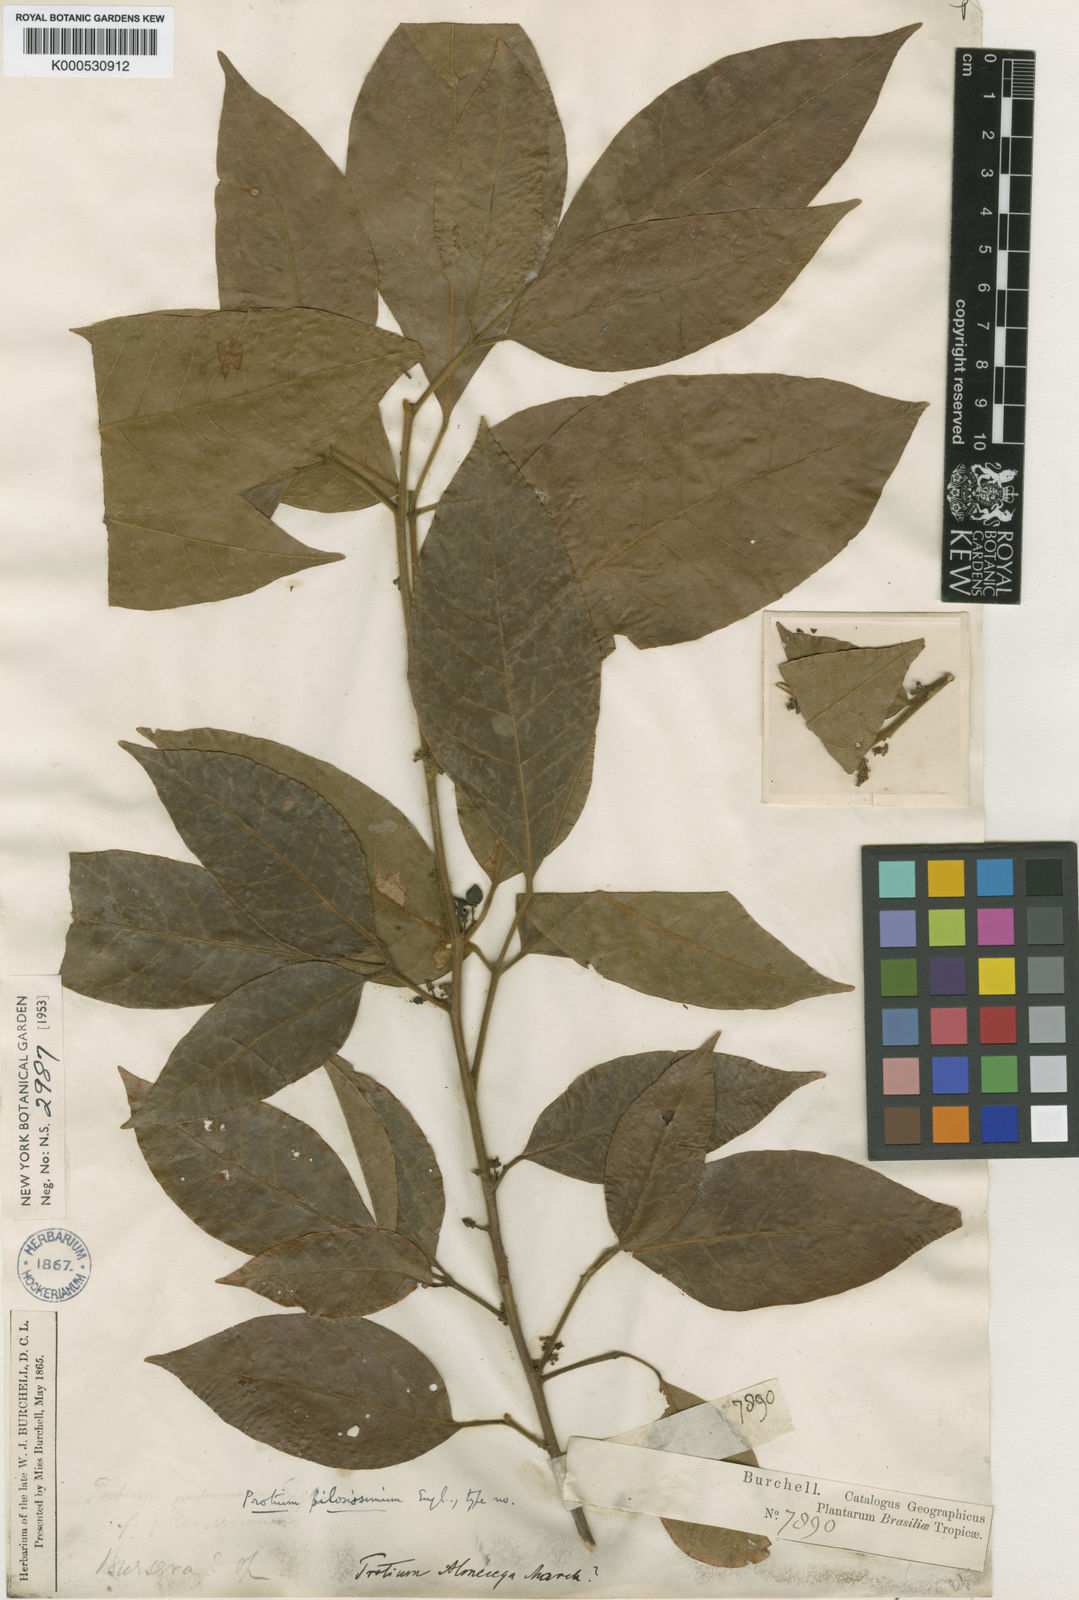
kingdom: Plantae
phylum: Tracheophyta
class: Magnoliopsida
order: Sapindales
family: Burseraceae
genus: Protium
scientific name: Protium pilosissimum
